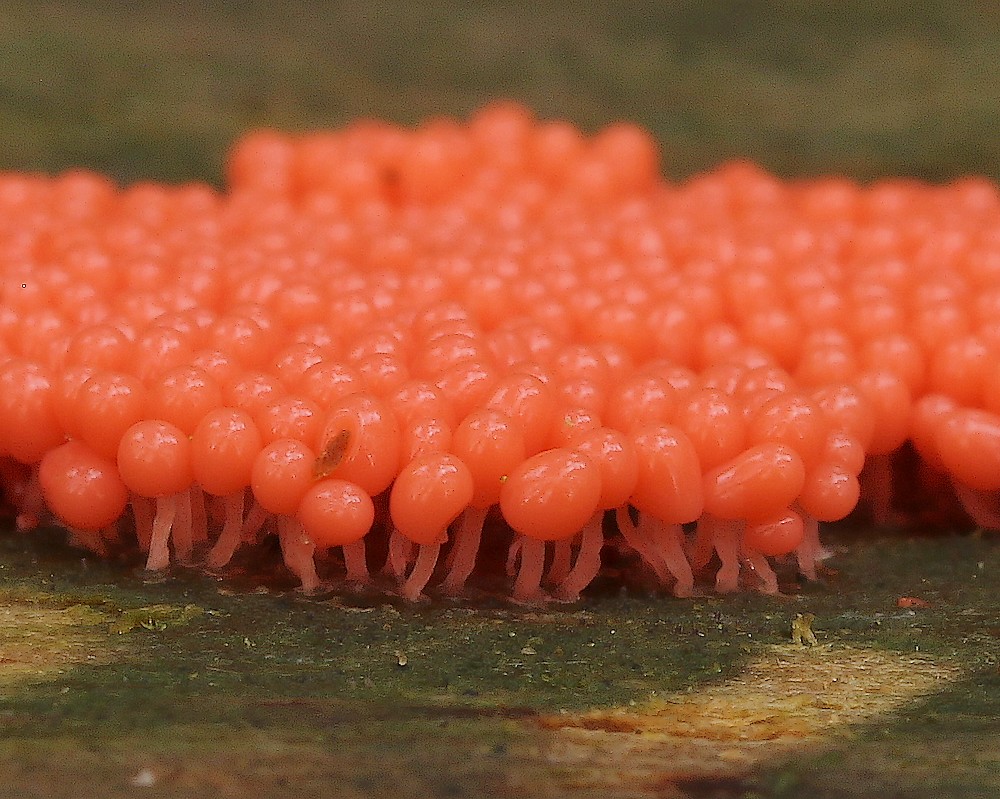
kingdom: Protozoa
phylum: Mycetozoa
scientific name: Mycetozoa
